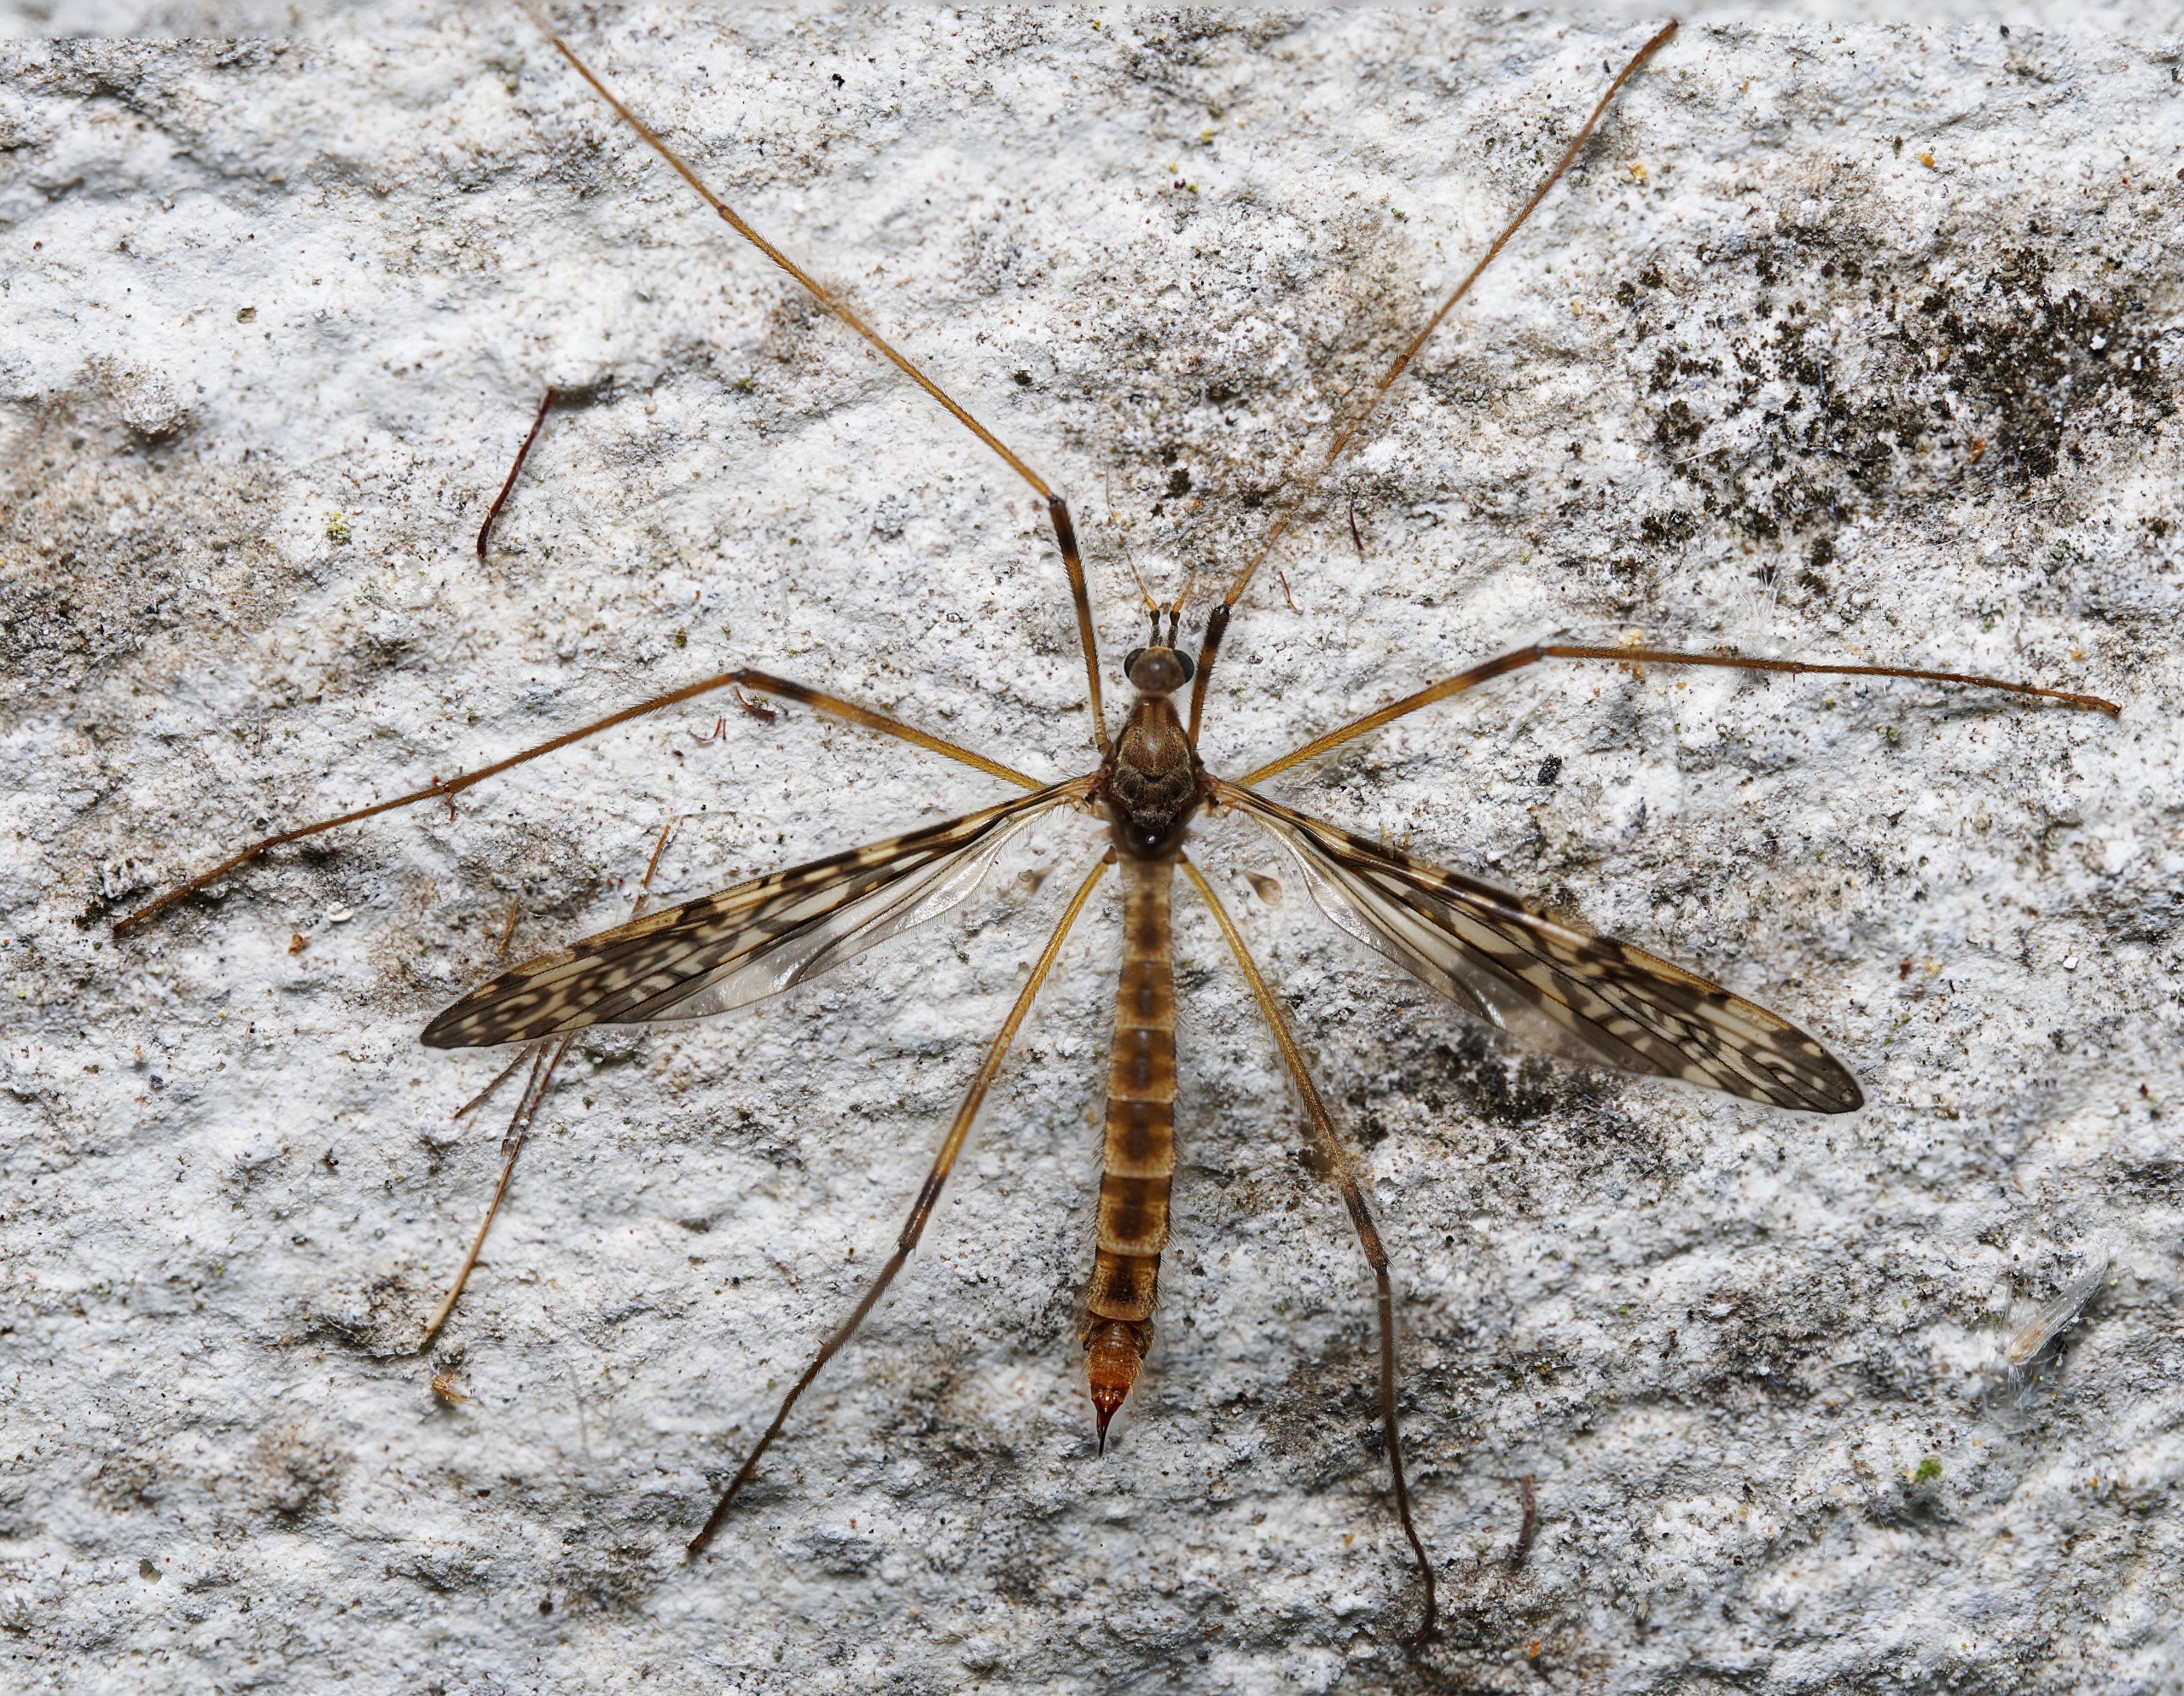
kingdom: Animalia
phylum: Arthropoda
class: Insecta
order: Diptera
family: Limoniidae
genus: Epiphragma
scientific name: Epiphragma ocellare
